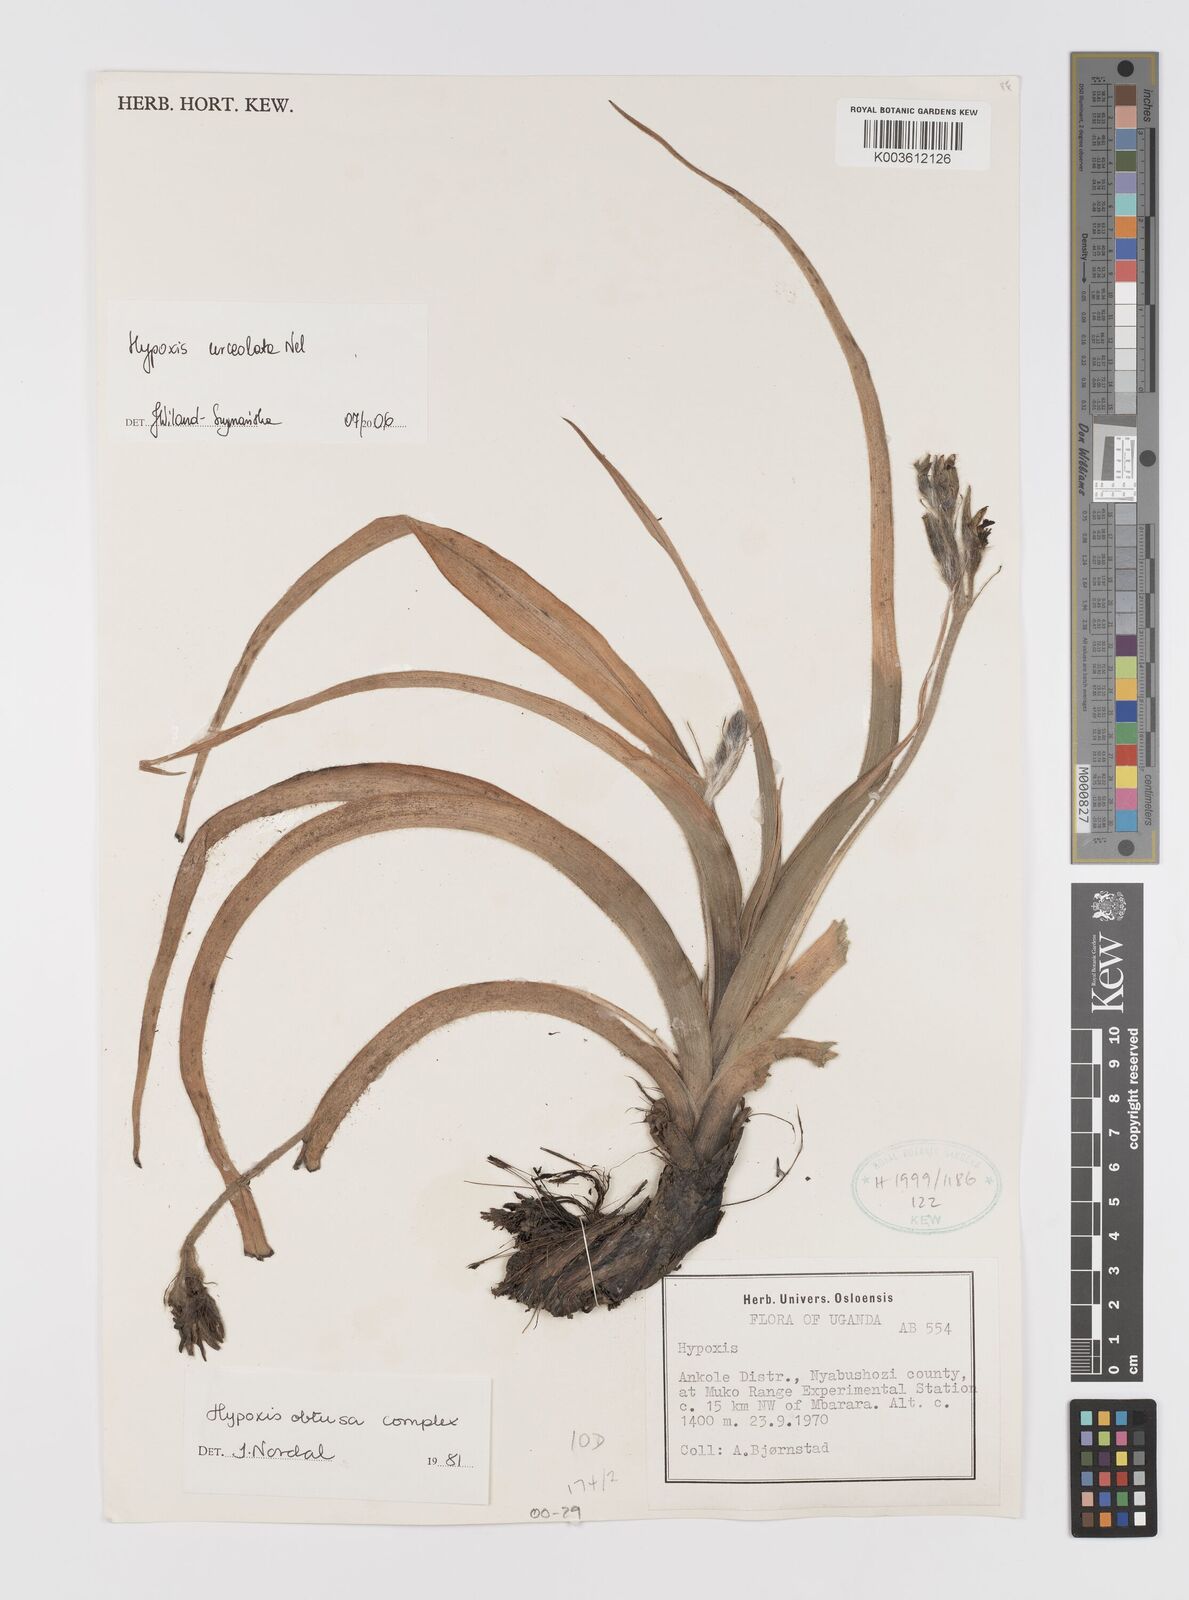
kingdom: Plantae
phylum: Tracheophyta
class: Liliopsida
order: Asparagales
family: Hypoxidaceae
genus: Hypoxis
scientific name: Hypoxis urceolata
